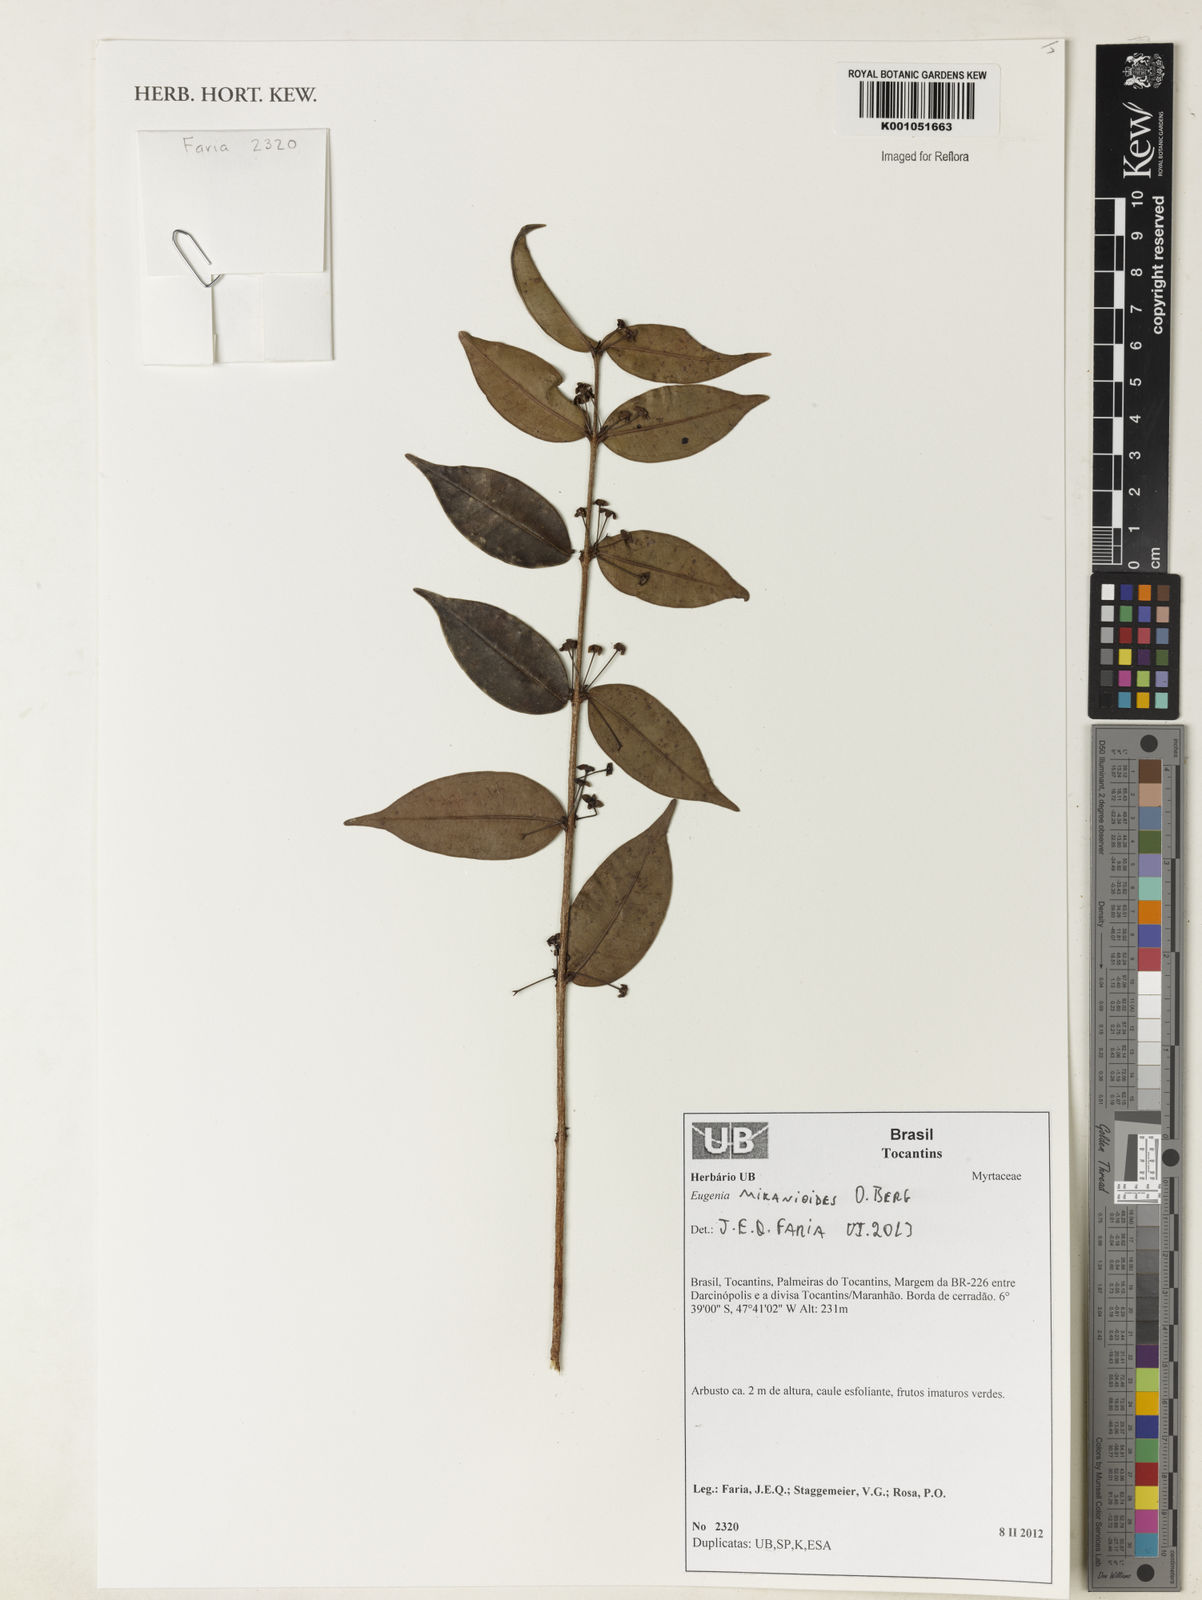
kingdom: Plantae
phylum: Tracheophyta
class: Magnoliopsida
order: Myrtales
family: Myrtaceae
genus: Eugenia
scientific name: Eugenia candolleana
